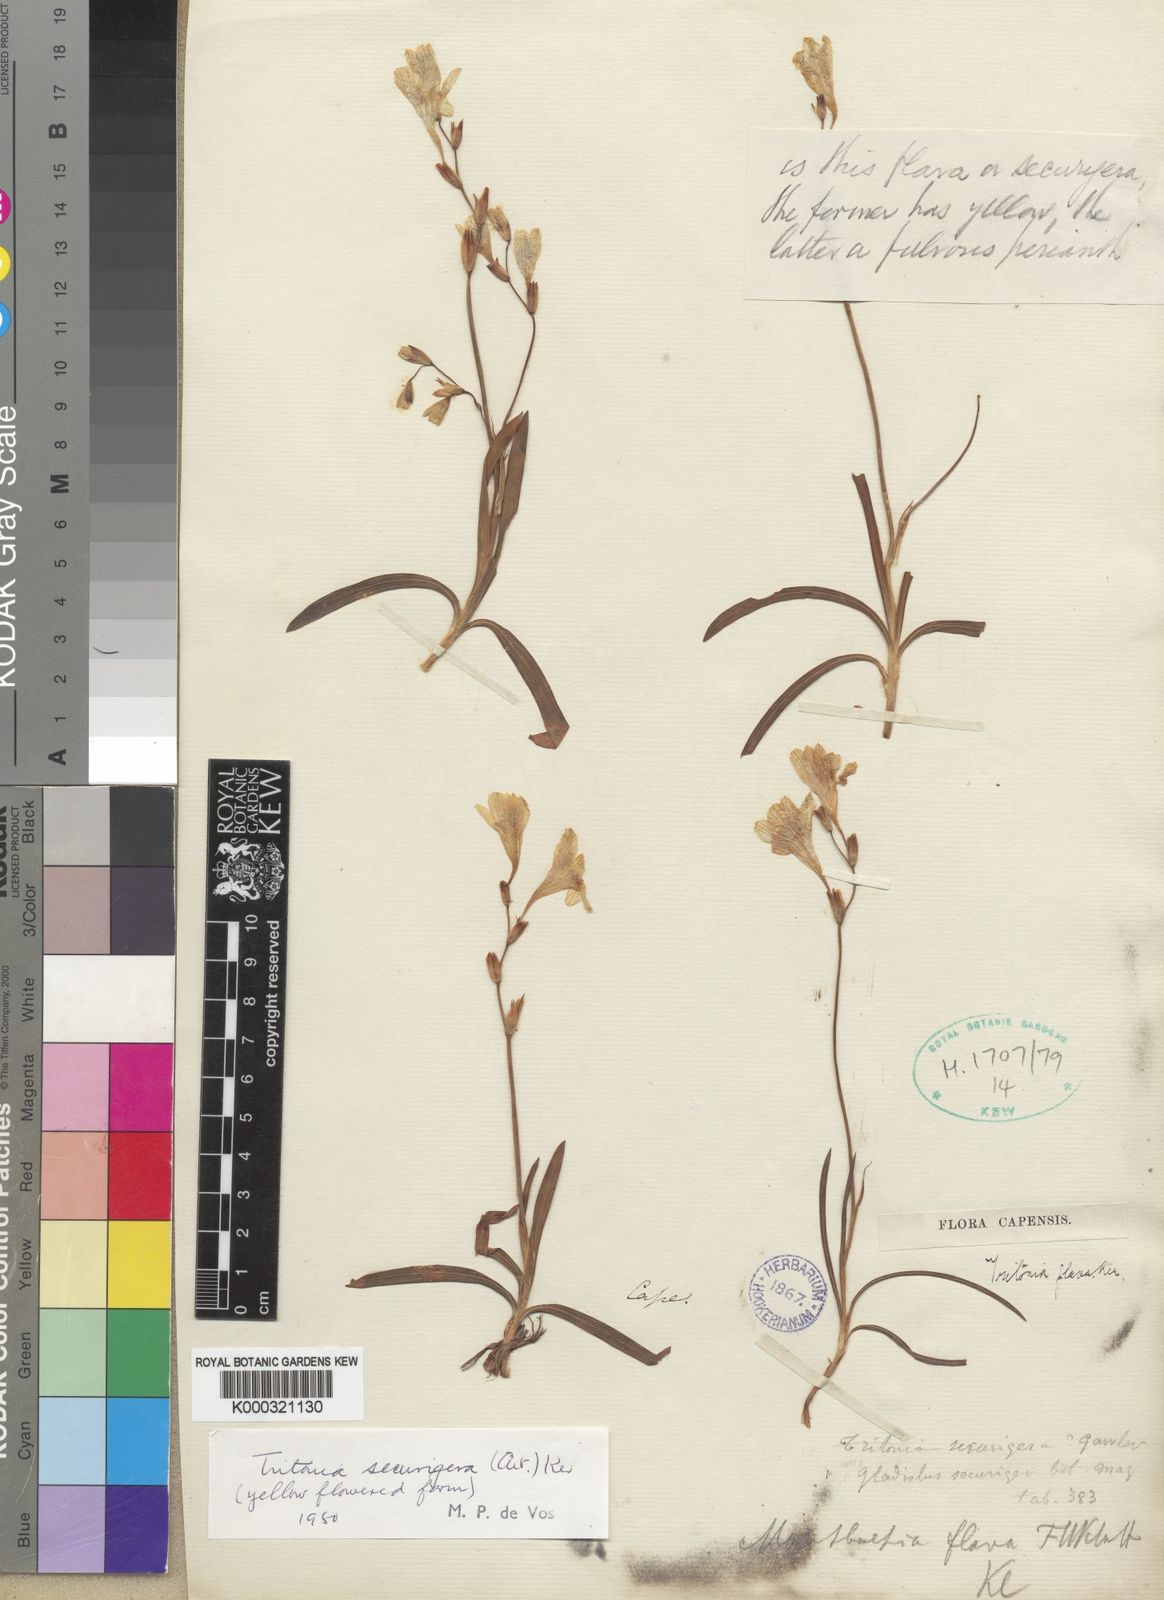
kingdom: Plantae
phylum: Tracheophyta
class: Liliopsida
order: Asparagales
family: Iridaceae
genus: Tritonia
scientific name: Tritonia securigera
